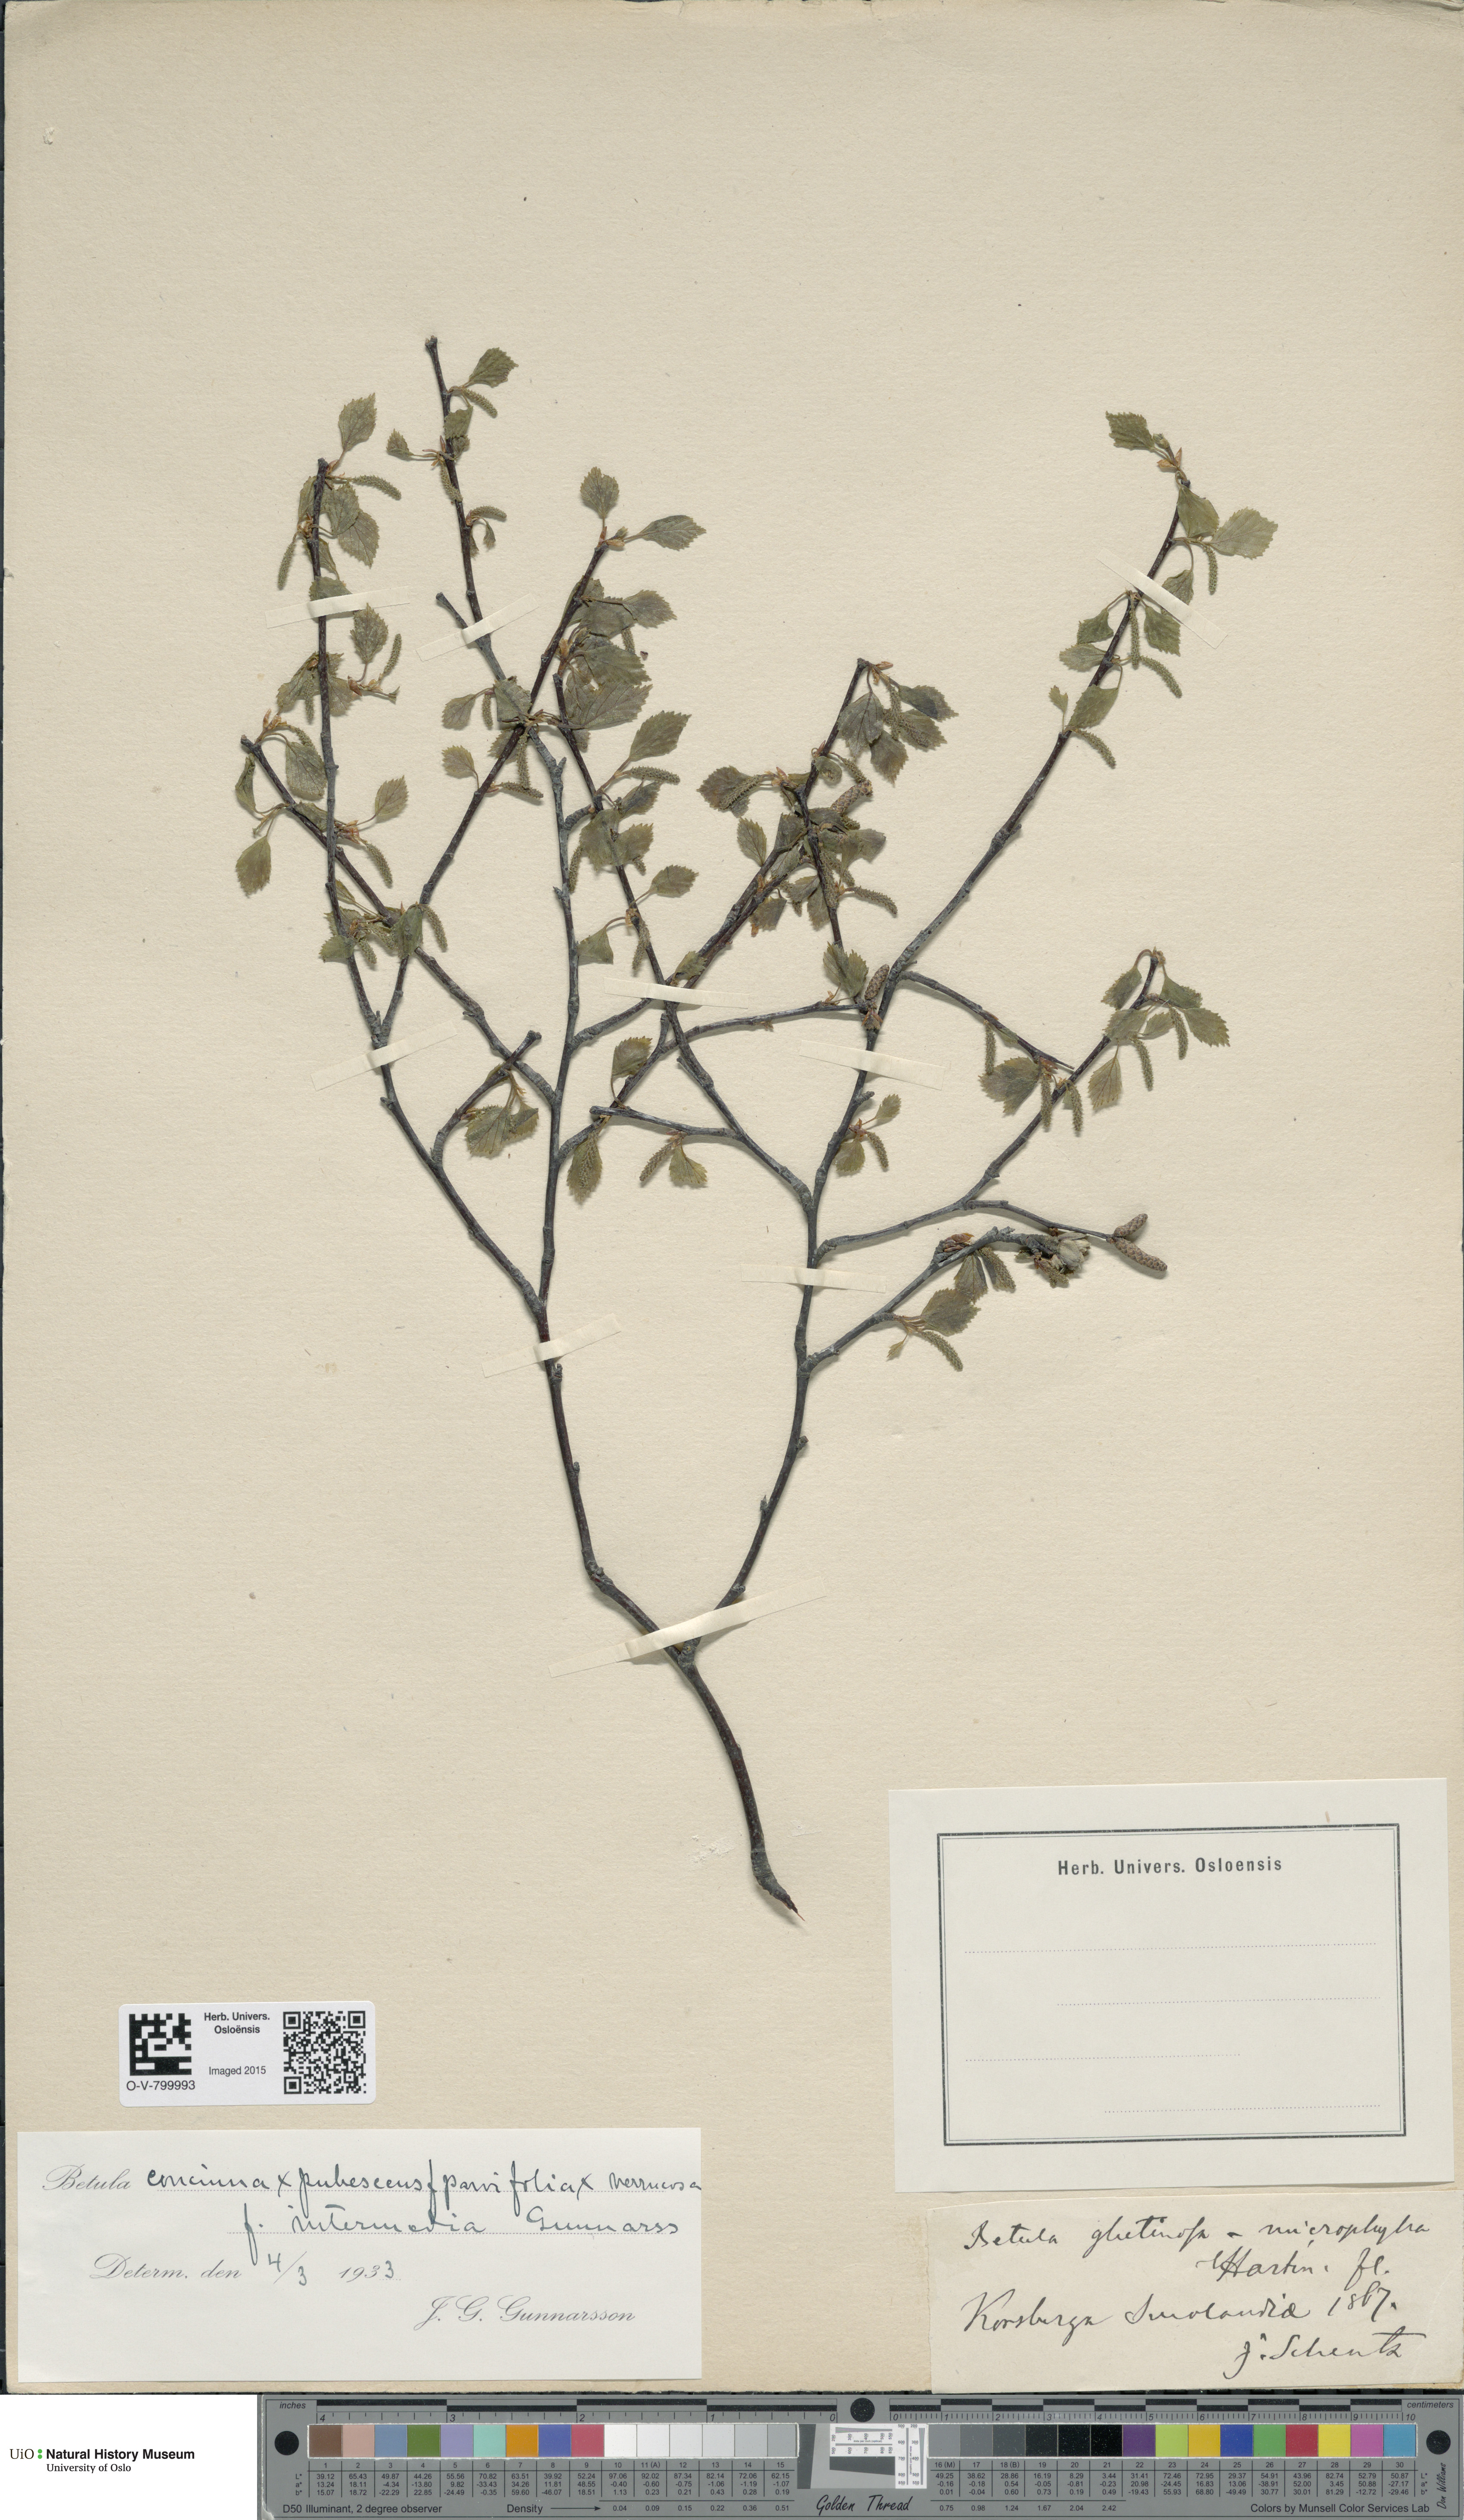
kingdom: Plantae
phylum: Tracheophyta
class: Magnoliopsida
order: Fagales
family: Betulaceae
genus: Alnus
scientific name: Alnus glutinosa
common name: Black alder
